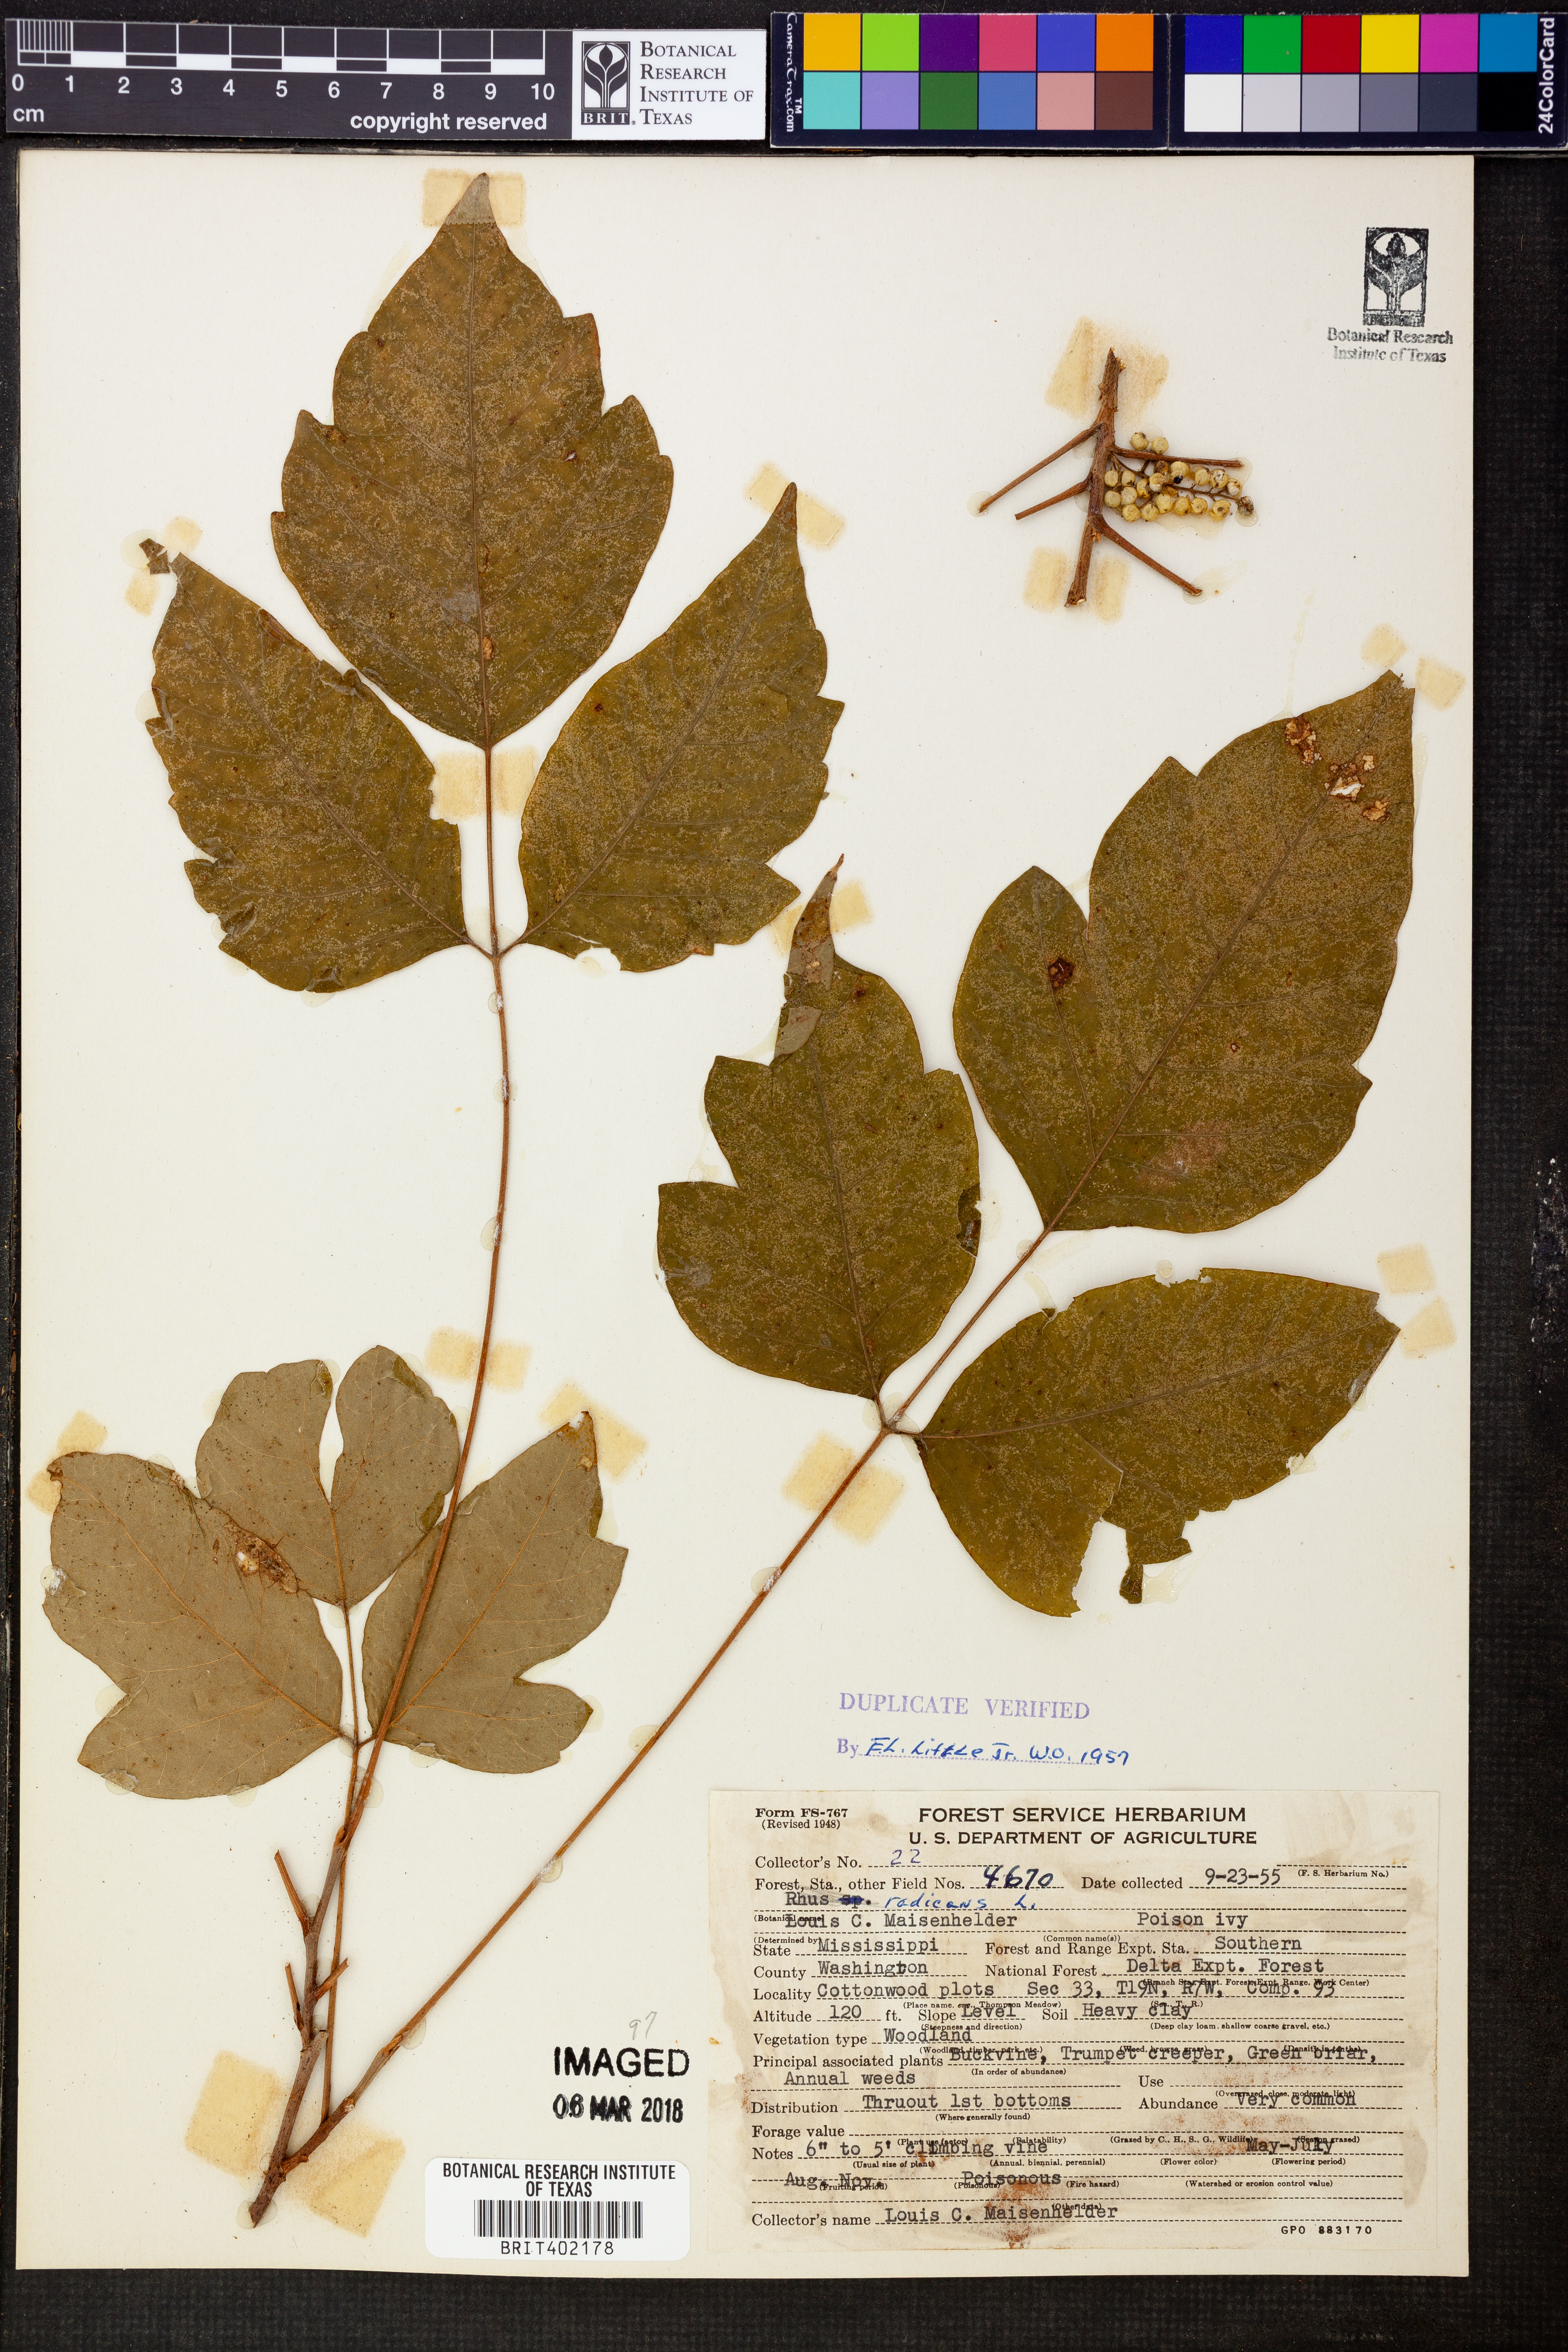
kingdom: Plantae
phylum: Tracheophyta
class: Magnoliopsida
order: Sapindales
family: Anacardiaceae
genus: Toxicodendron
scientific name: Toxicodendron radicans
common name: Poison ivy
